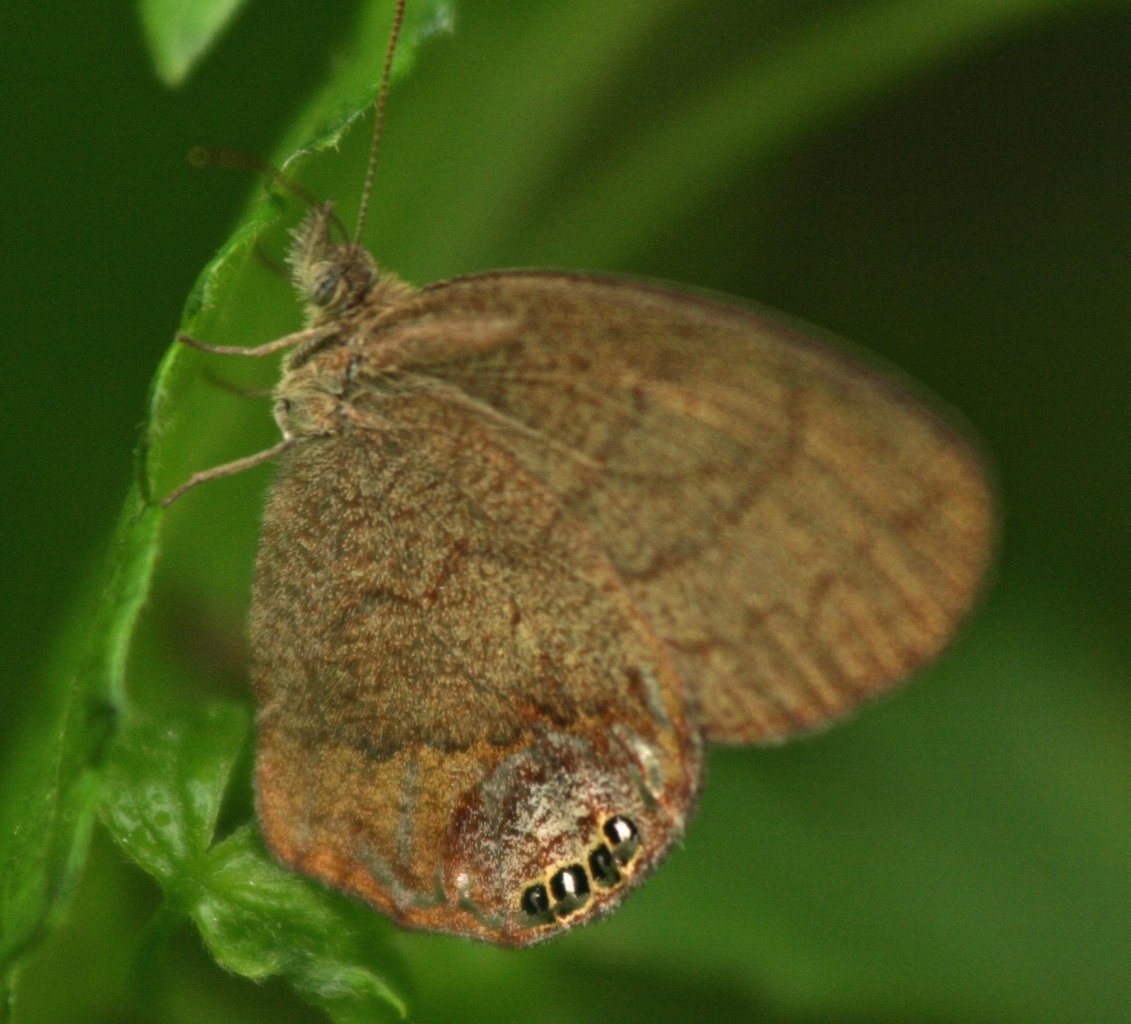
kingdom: Animalia
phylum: Arthropoda
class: Insecta
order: Lepidoptera
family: Nymphalidae
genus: Euptychia
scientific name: Euptychia cornelius
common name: Gemmed Satyr
